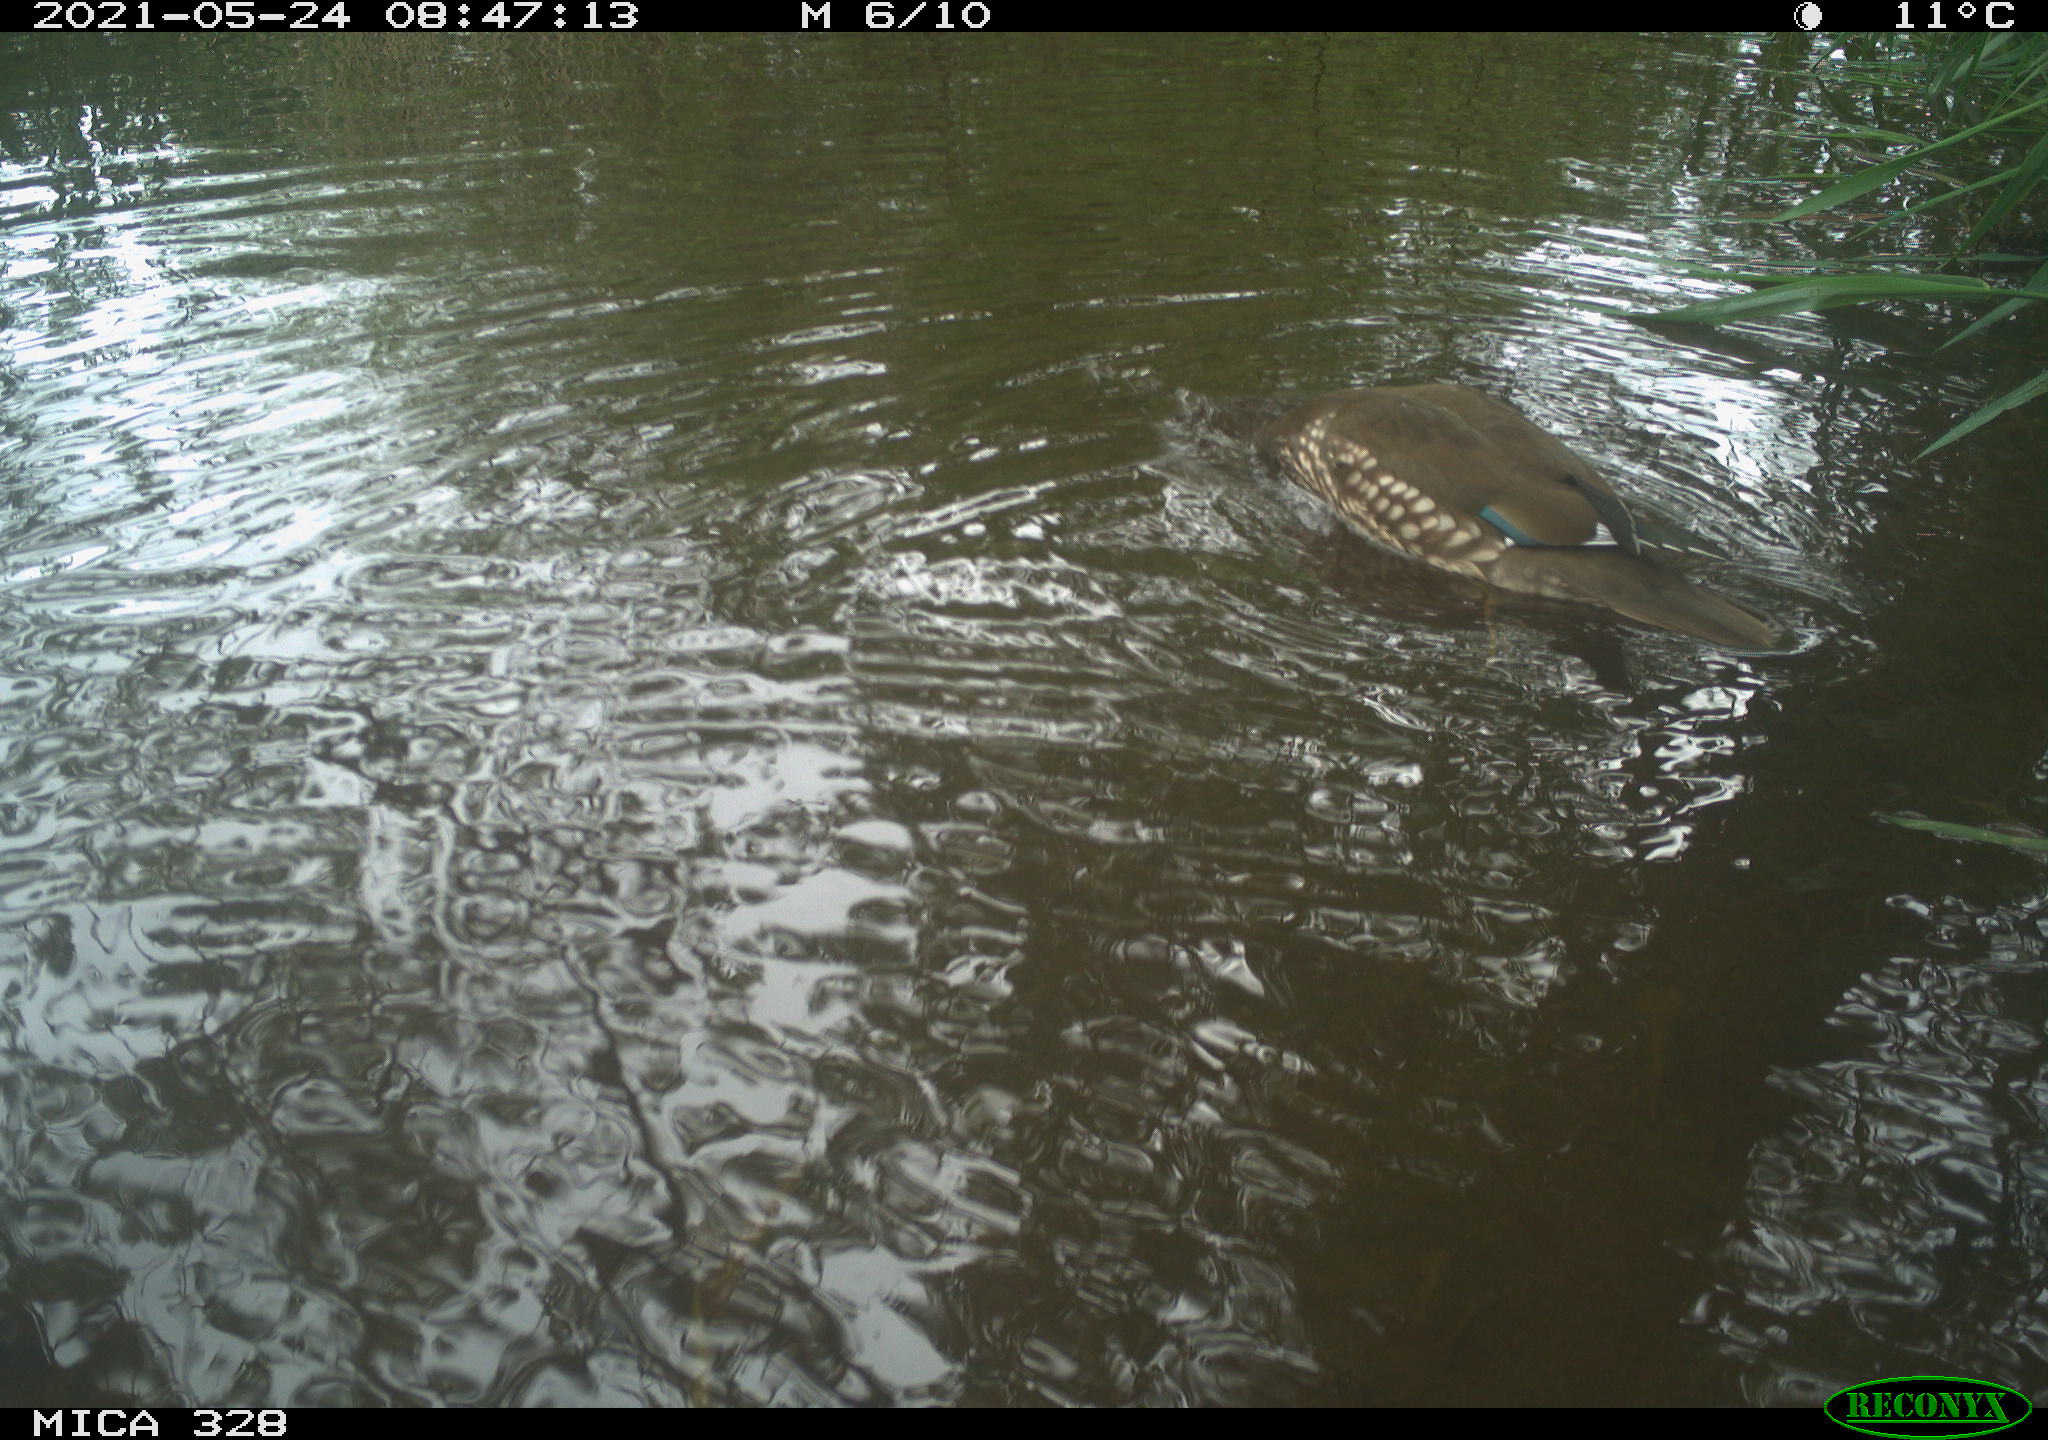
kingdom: Animalia
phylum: Chordata
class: Aves
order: Anseriformes
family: Anatidae
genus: Aix
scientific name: Aix galericulata
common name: Mandarin duck
